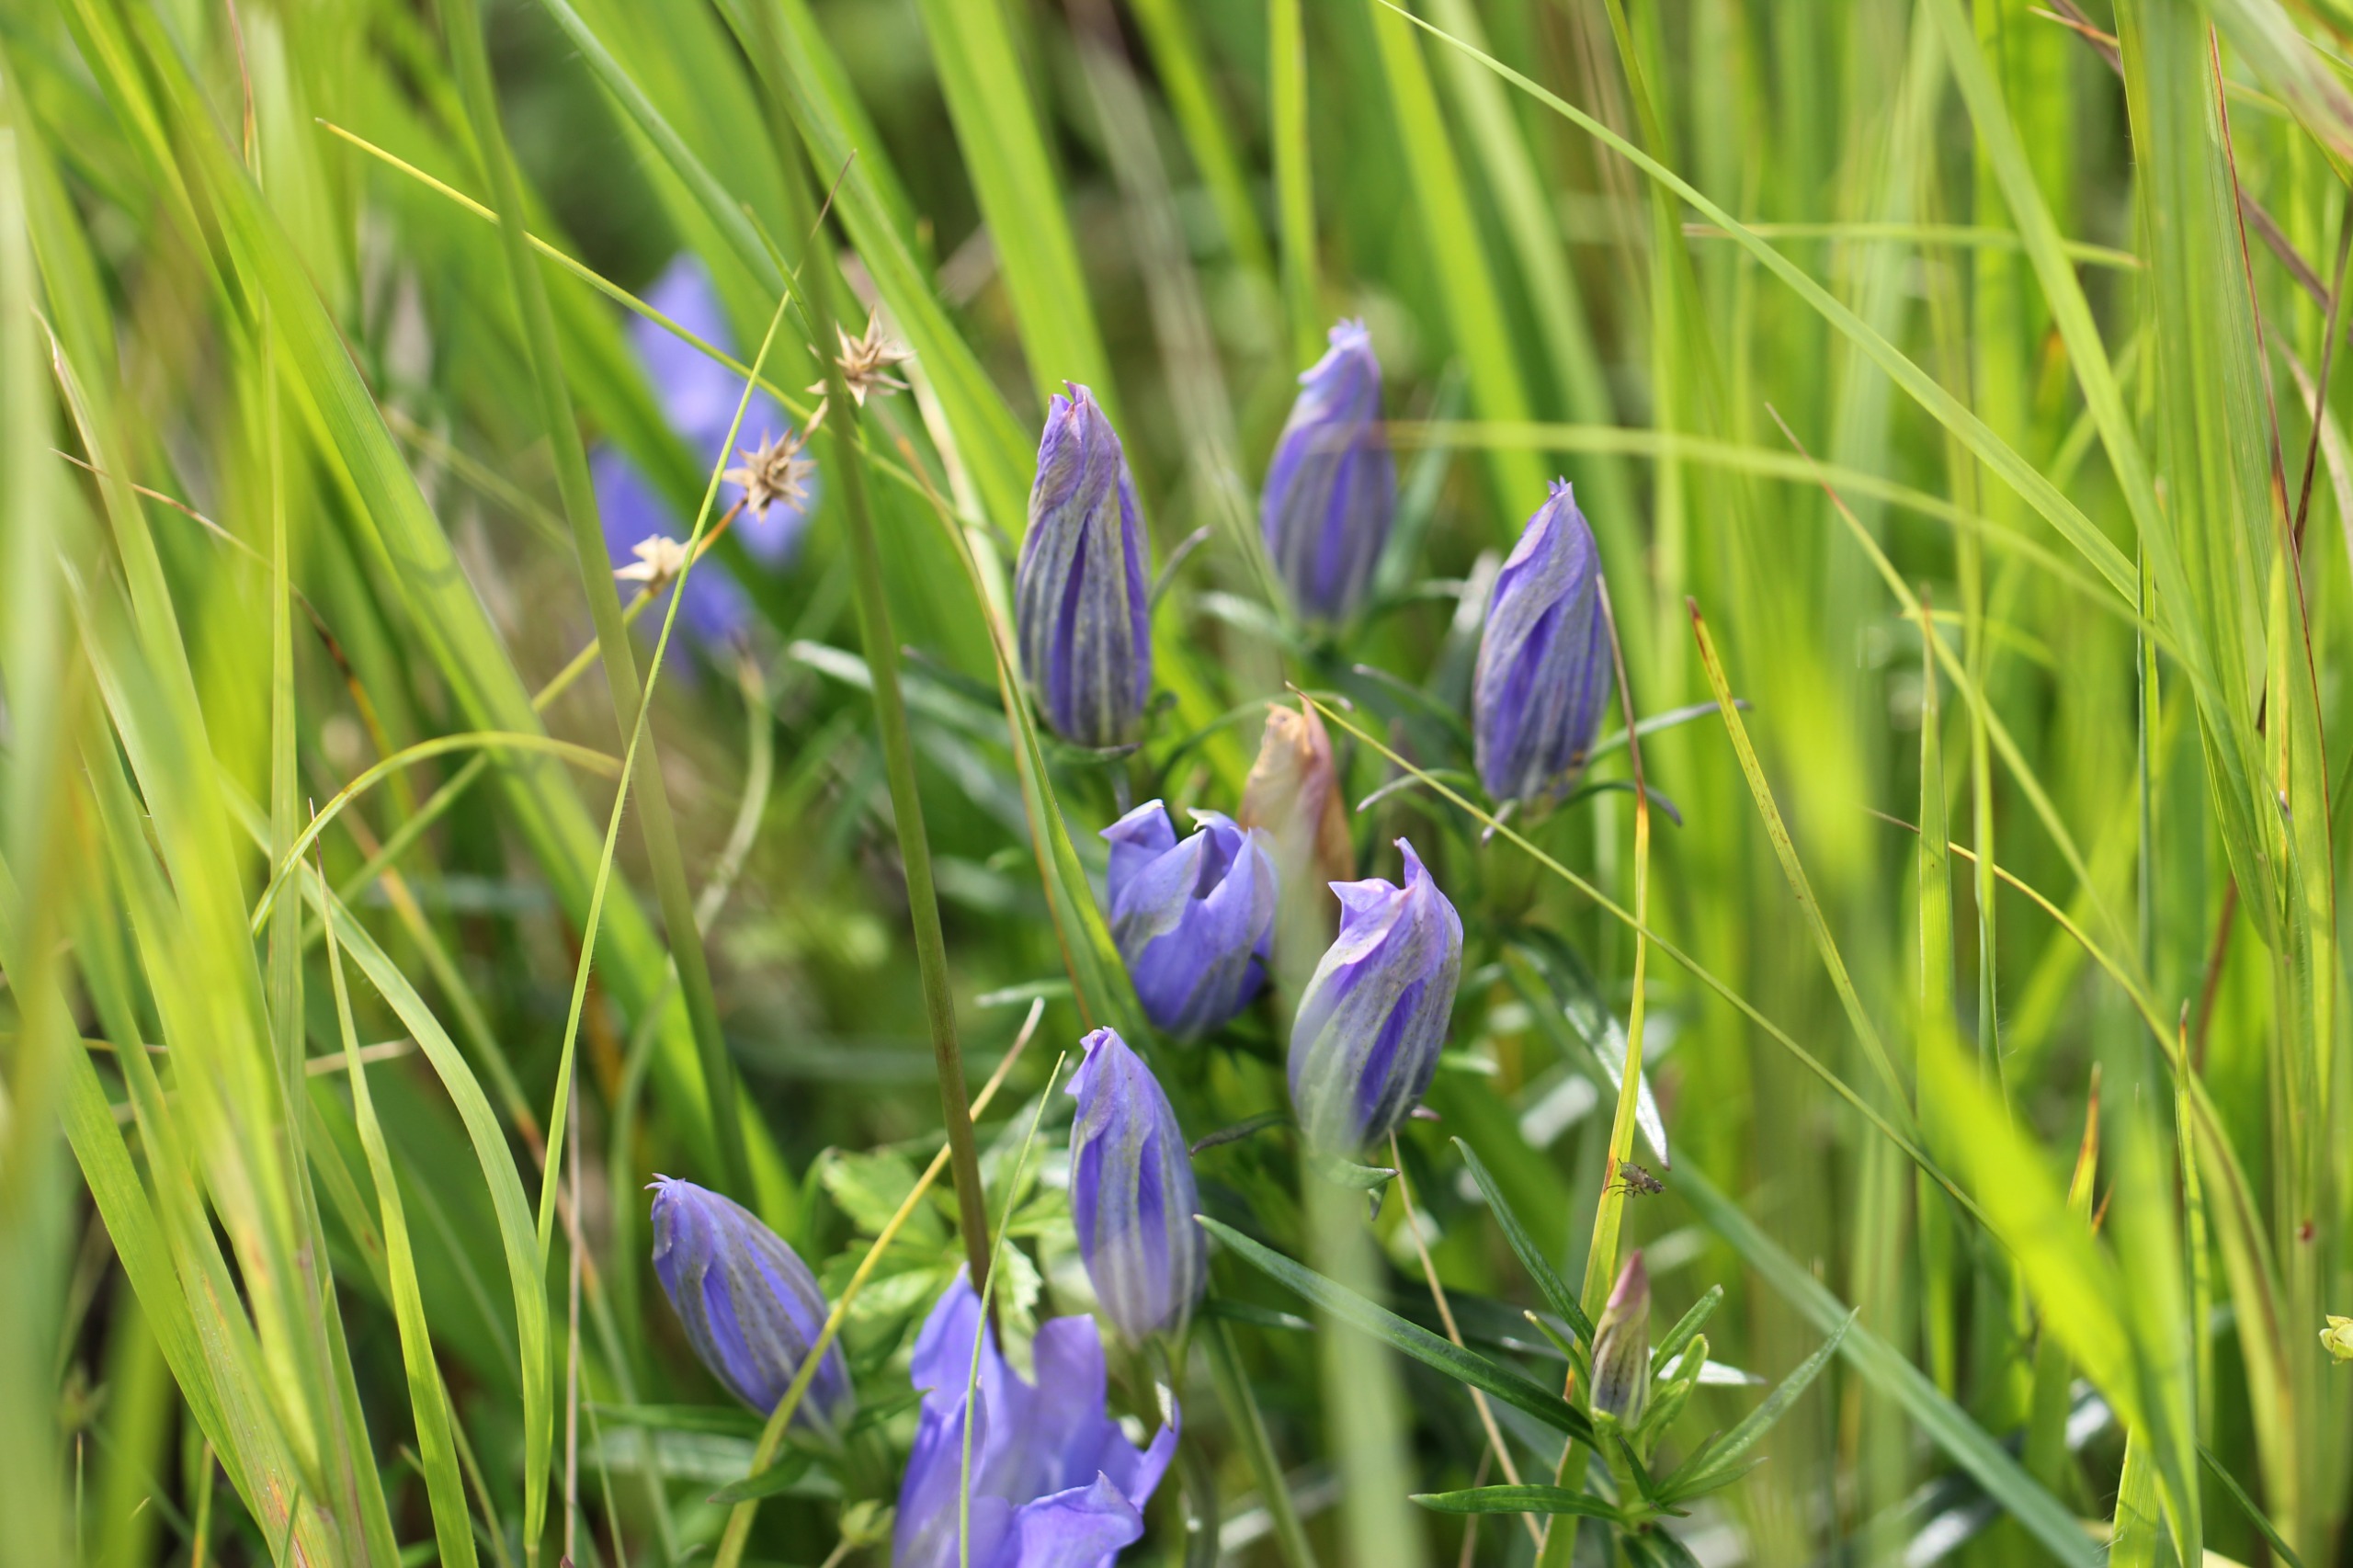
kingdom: Plantae
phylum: Tracheophyta
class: Magnoliopsida
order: Gentianales
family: Gentianaceae
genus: Gentiana
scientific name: Gentiana pneumonanthe
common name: Klokke-ensian
